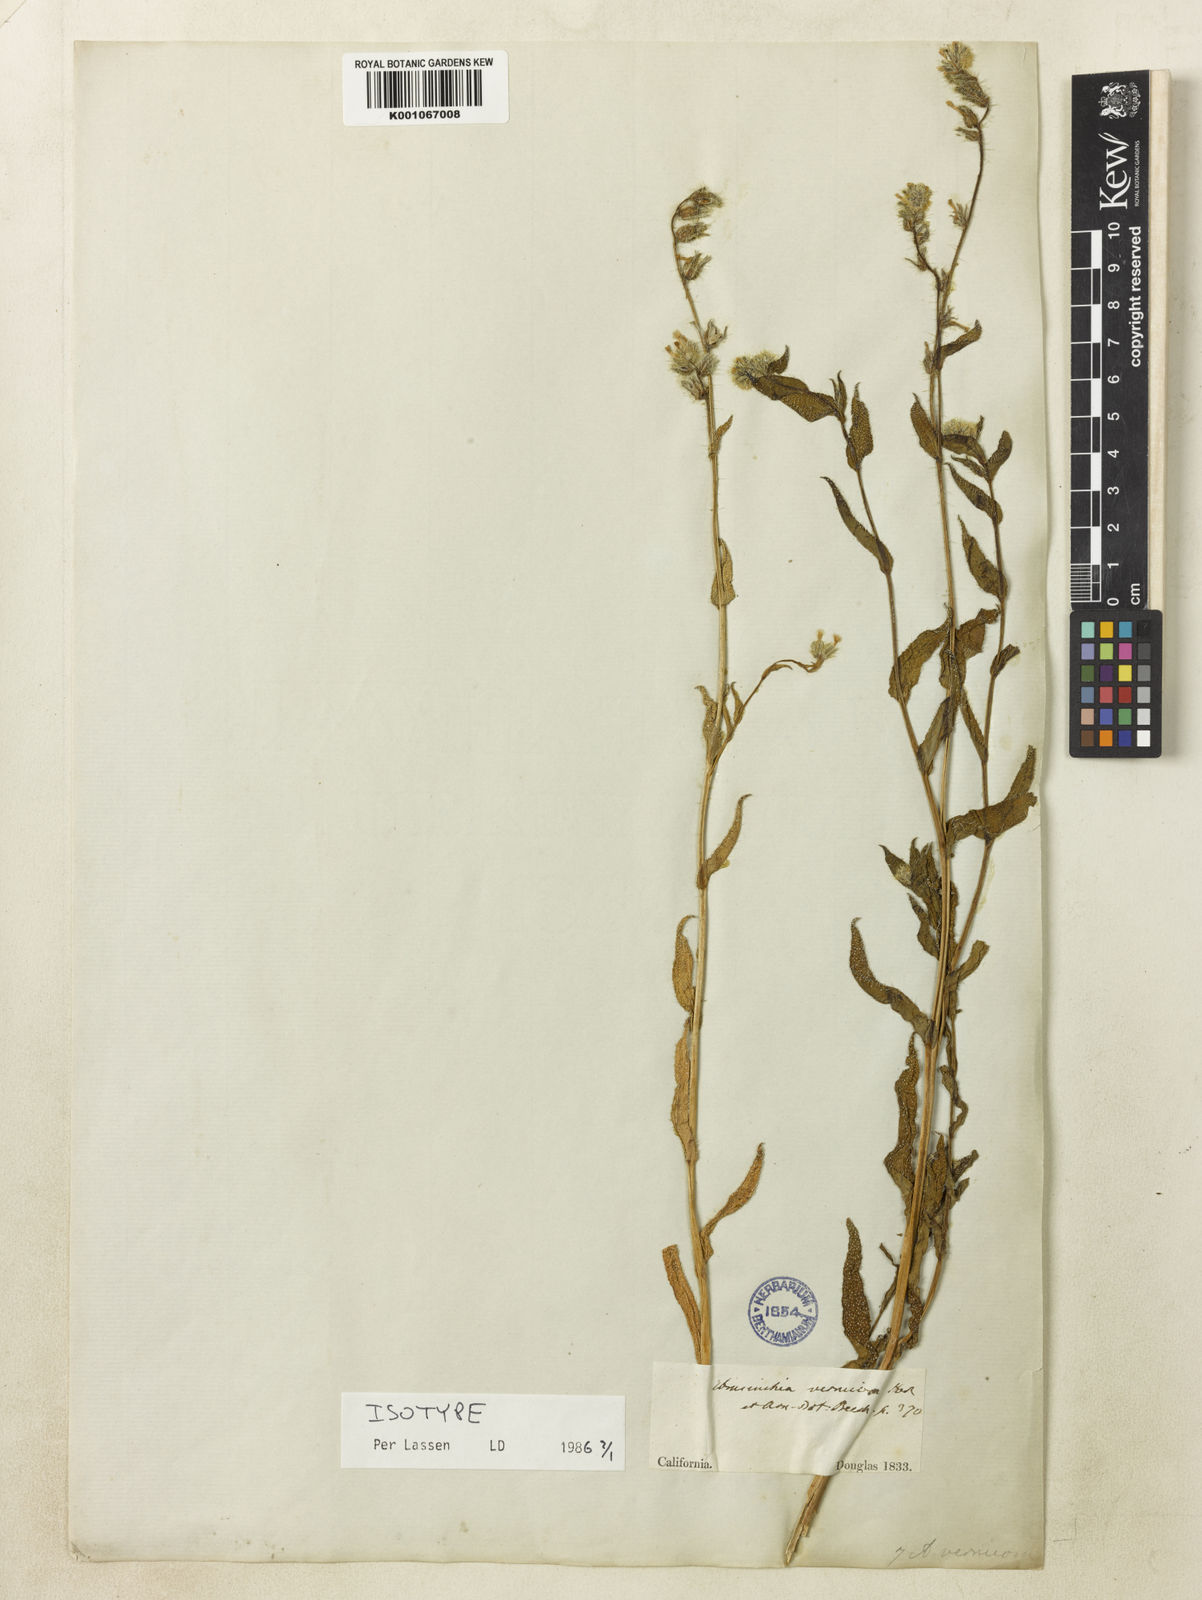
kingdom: Plantae
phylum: Tracheophyta
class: Magnoliopsida
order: Boraginales
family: Boraginaceae
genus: Amsinckia
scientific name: Amsinckia vernicosa
